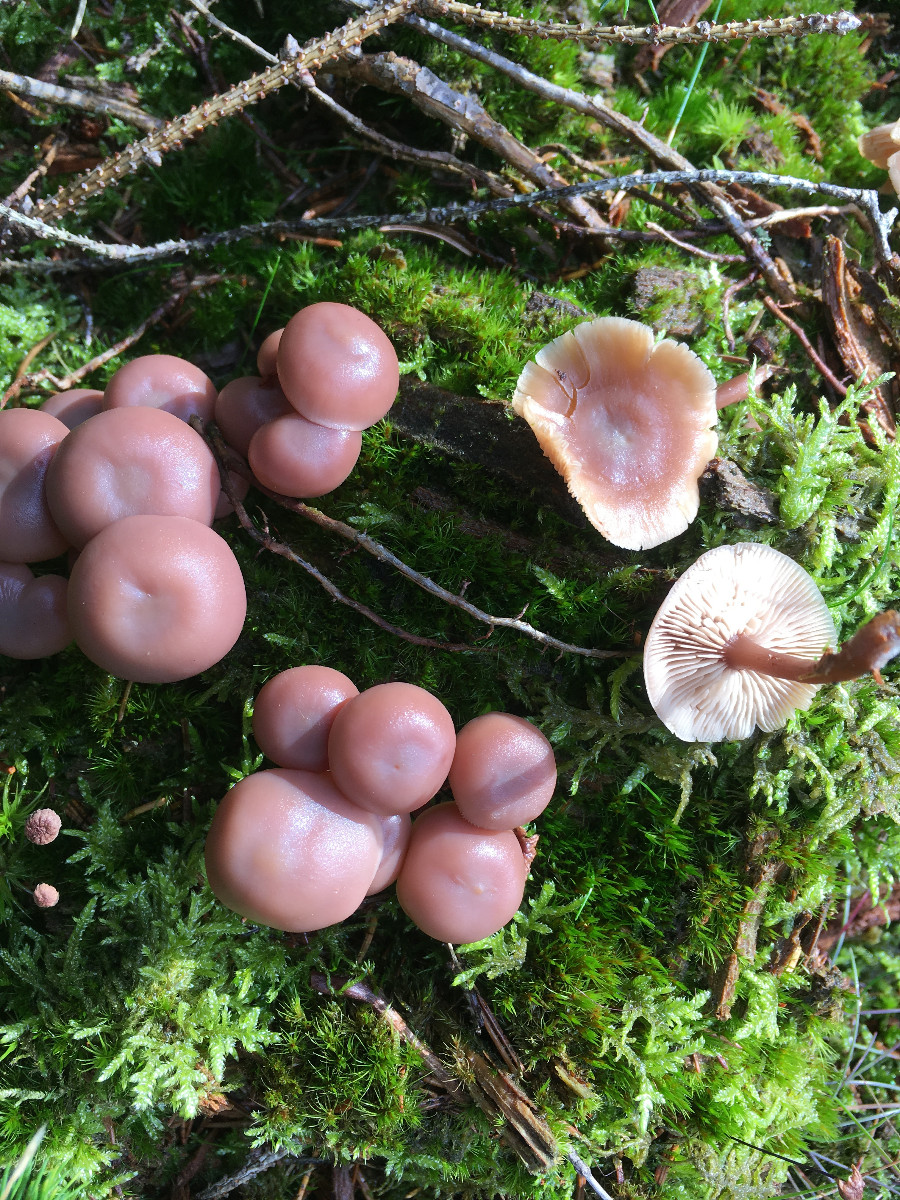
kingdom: Fungi
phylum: Basidiomycota
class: Agaricomycetes
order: Agaricales
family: Omphalotaceae
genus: Connopus
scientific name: Connopus acervatus
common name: tue-fladhat
